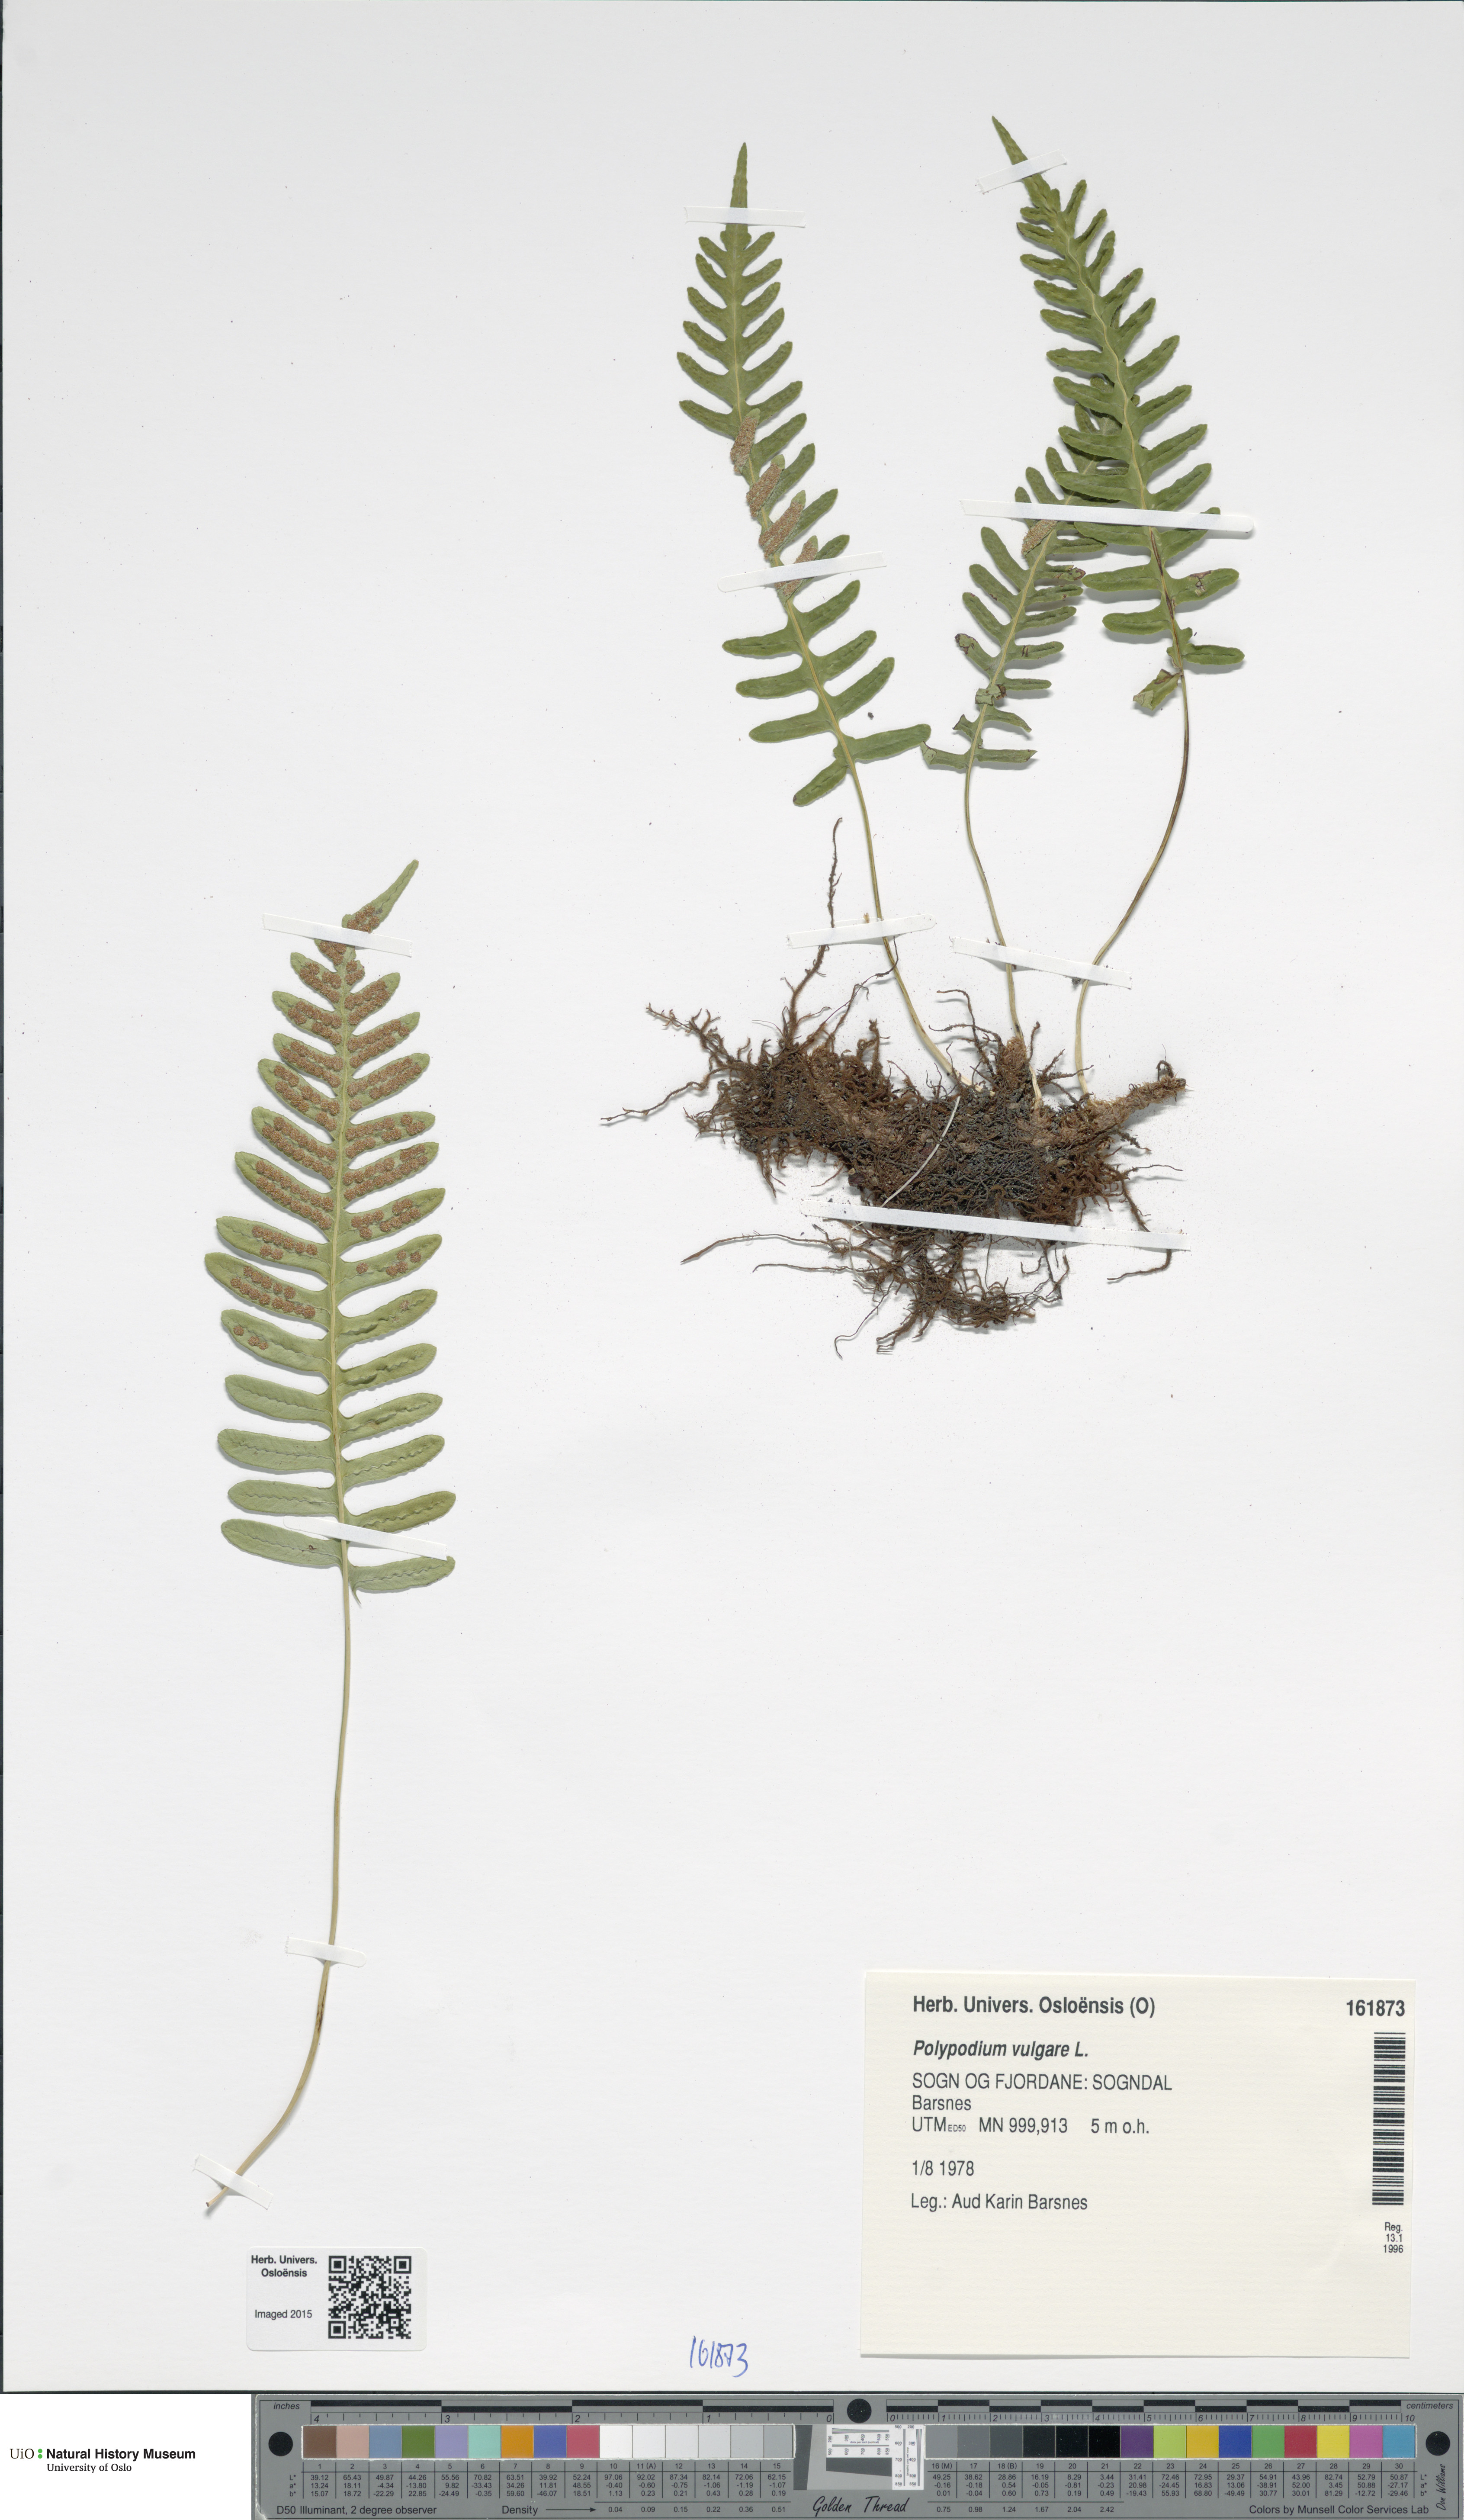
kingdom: Plantae
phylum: Tracheophyta
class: Polypodiopsida
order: Polypodiales
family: Polypodiaceae
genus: Polypodium
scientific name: Polypodium vulgare
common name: Common polypody
